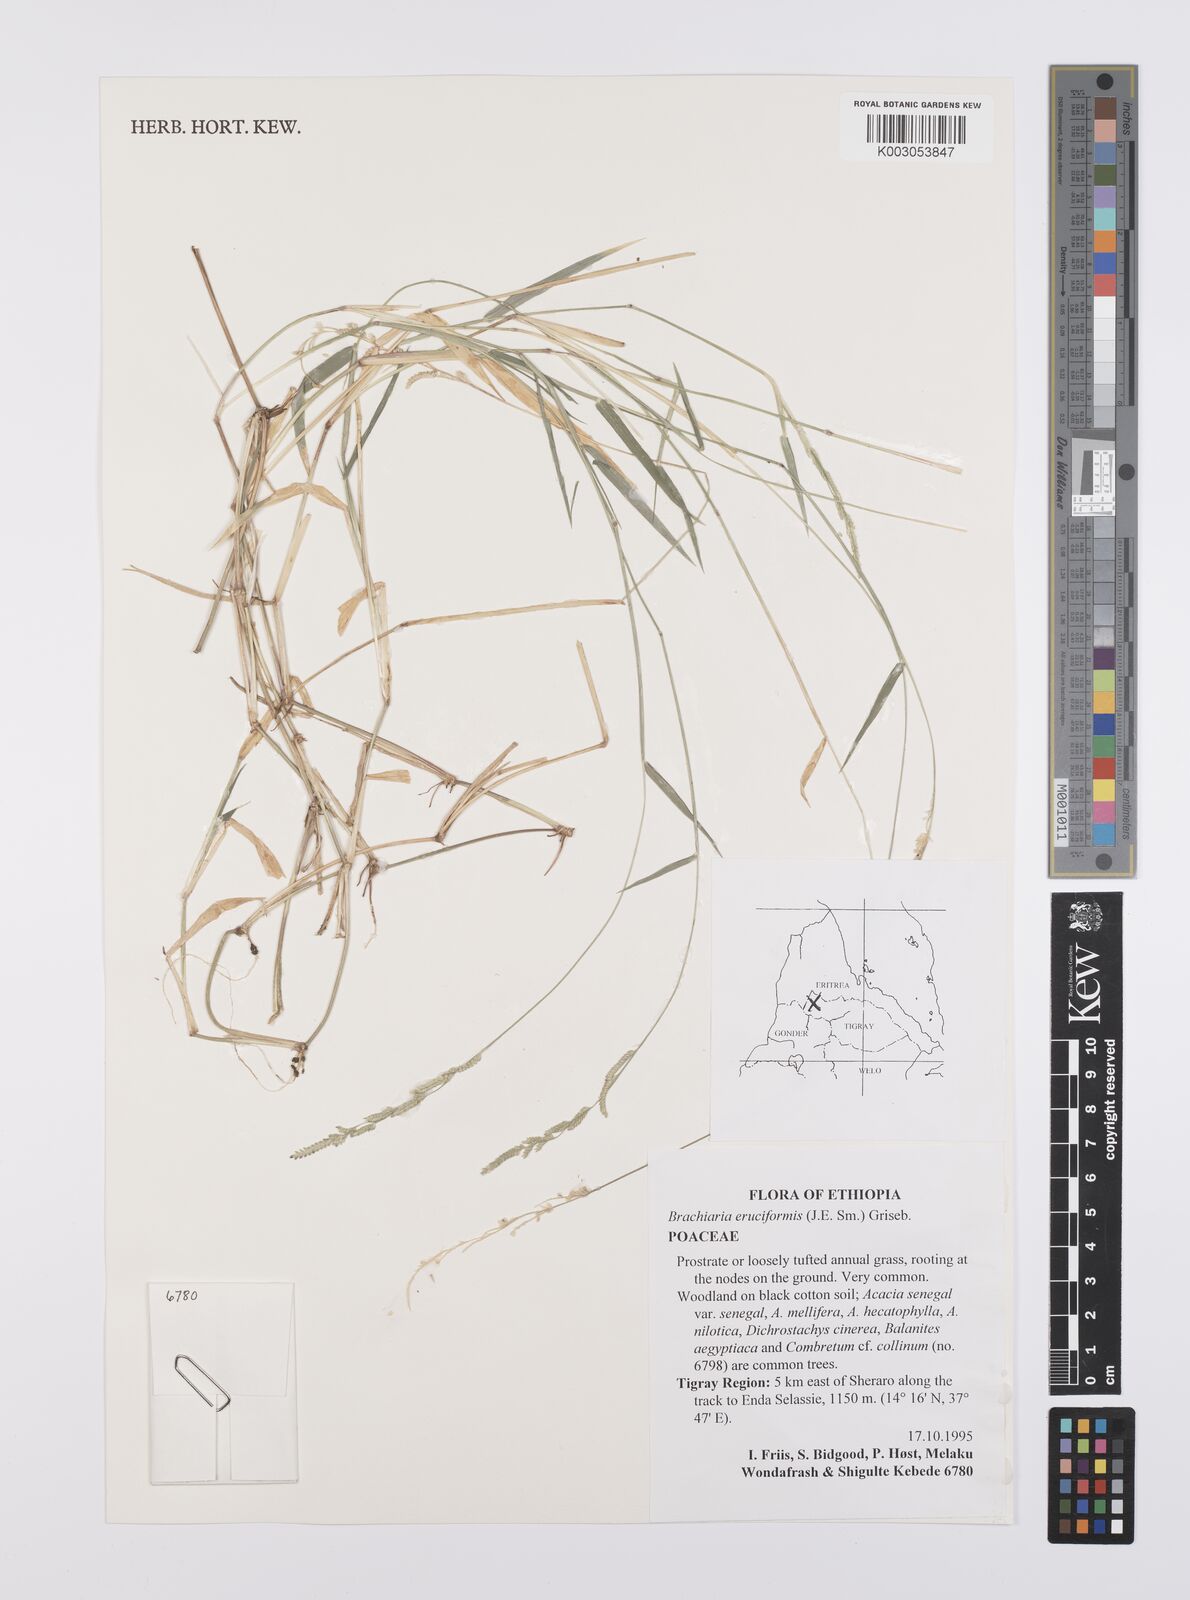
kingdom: Plantae
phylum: Tracheophyta
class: Liliopsida
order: Poales
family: Poaceae
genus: Moorochloa
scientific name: Moorochloa eruciformis
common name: Sweet signalgrass
